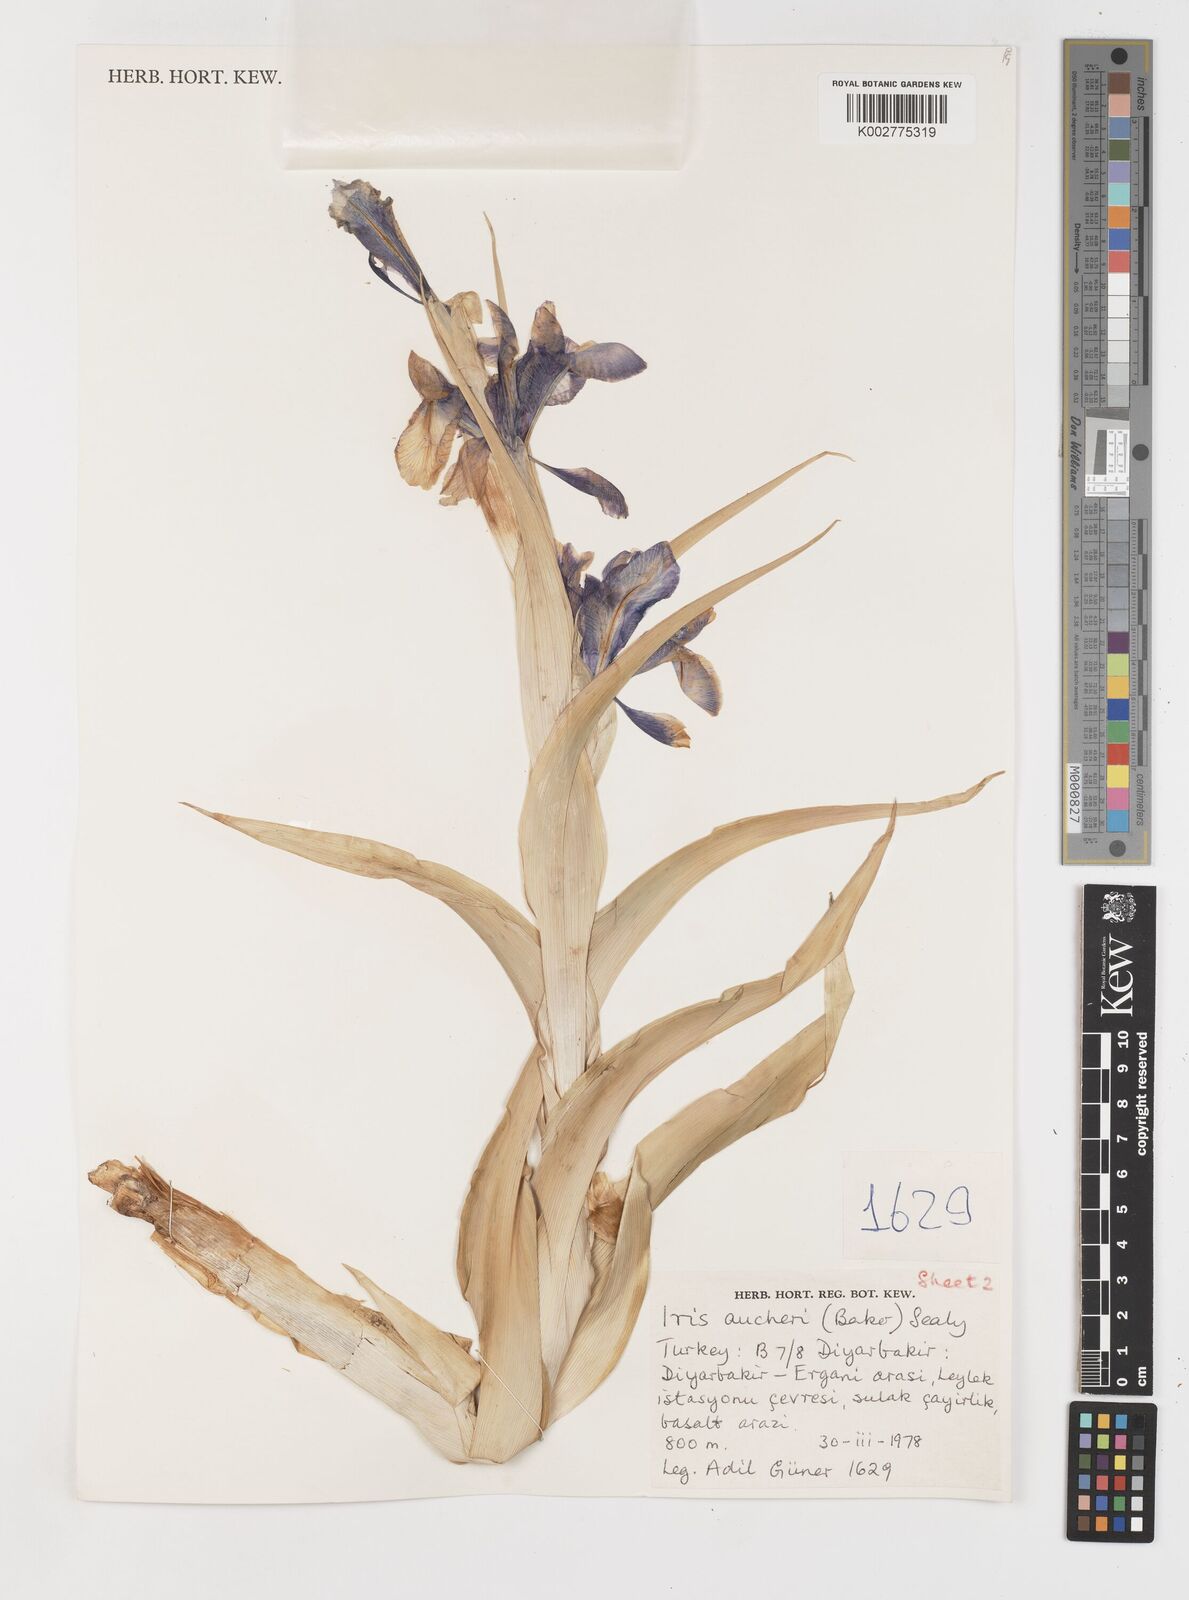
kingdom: Plantae
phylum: Tracheophyta
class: Liliopsida
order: Asparagales
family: Iridaceae
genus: Iris
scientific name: Iris aucheri
